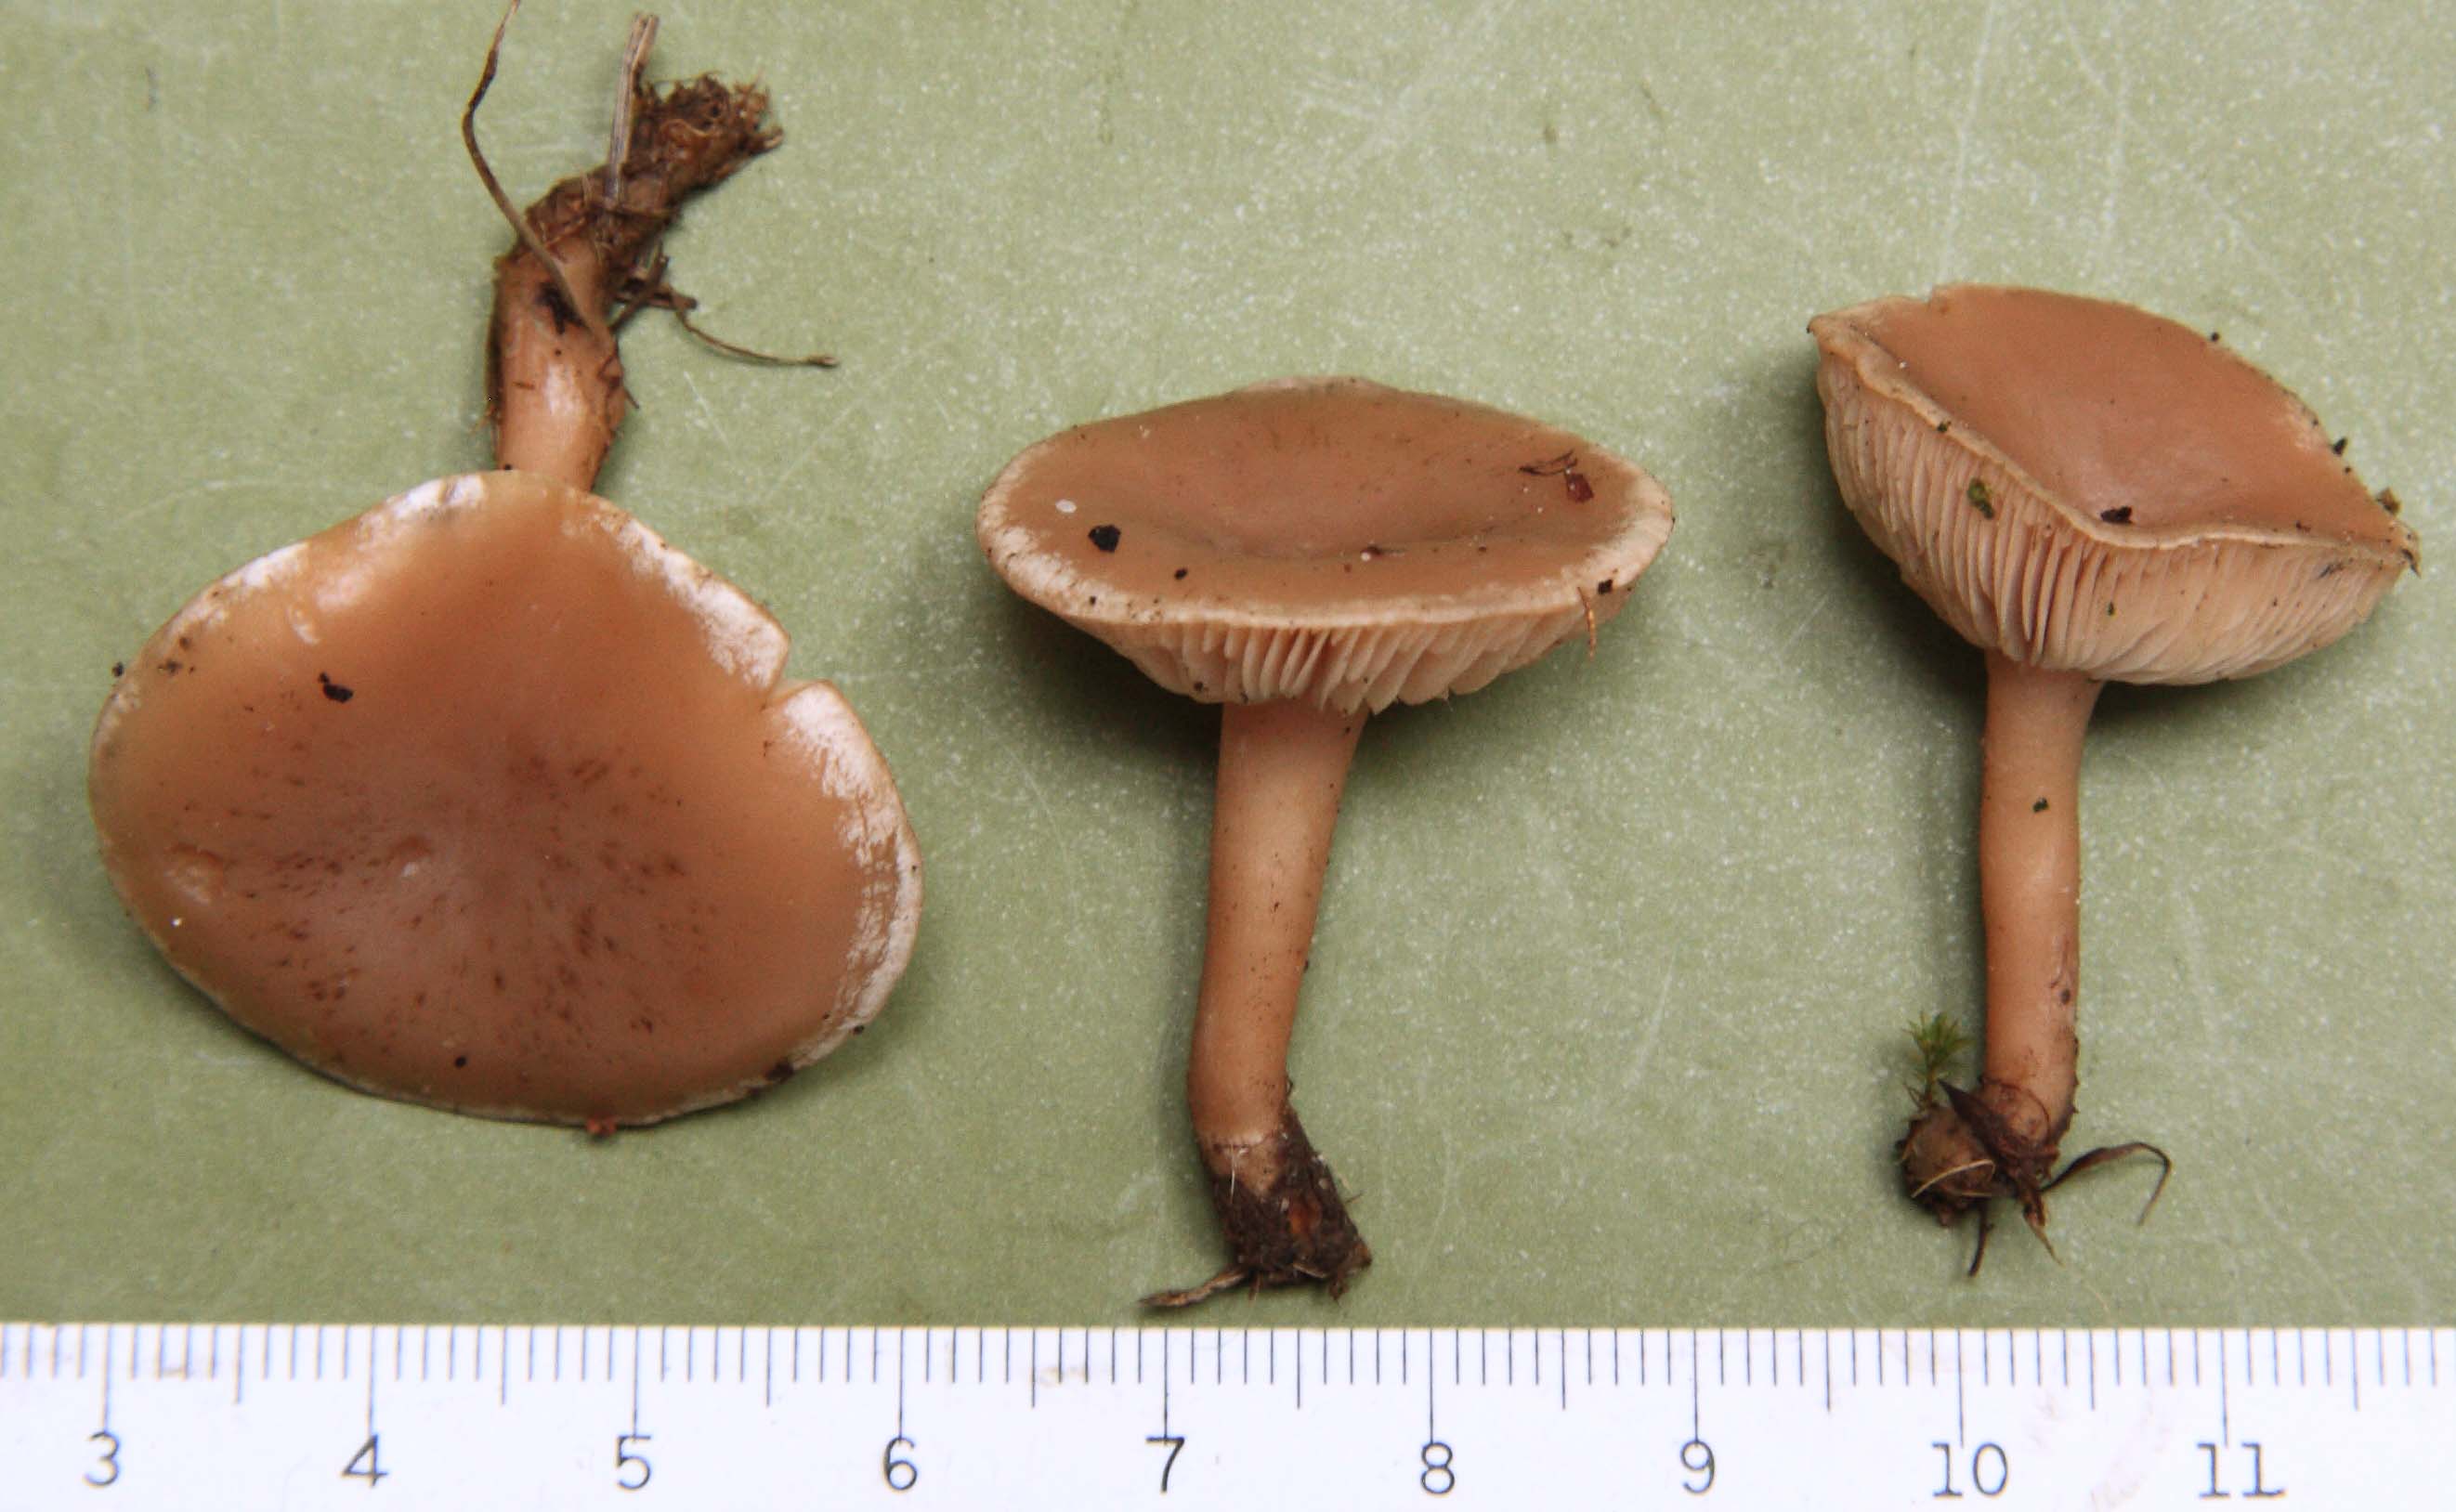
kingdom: Fungi
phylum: Basidiomycota
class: Agaricomycetes
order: Agaricales
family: Tricholomataceae
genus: Clitocybe
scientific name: Clitocybe rivulosa
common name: eng-tragthat
